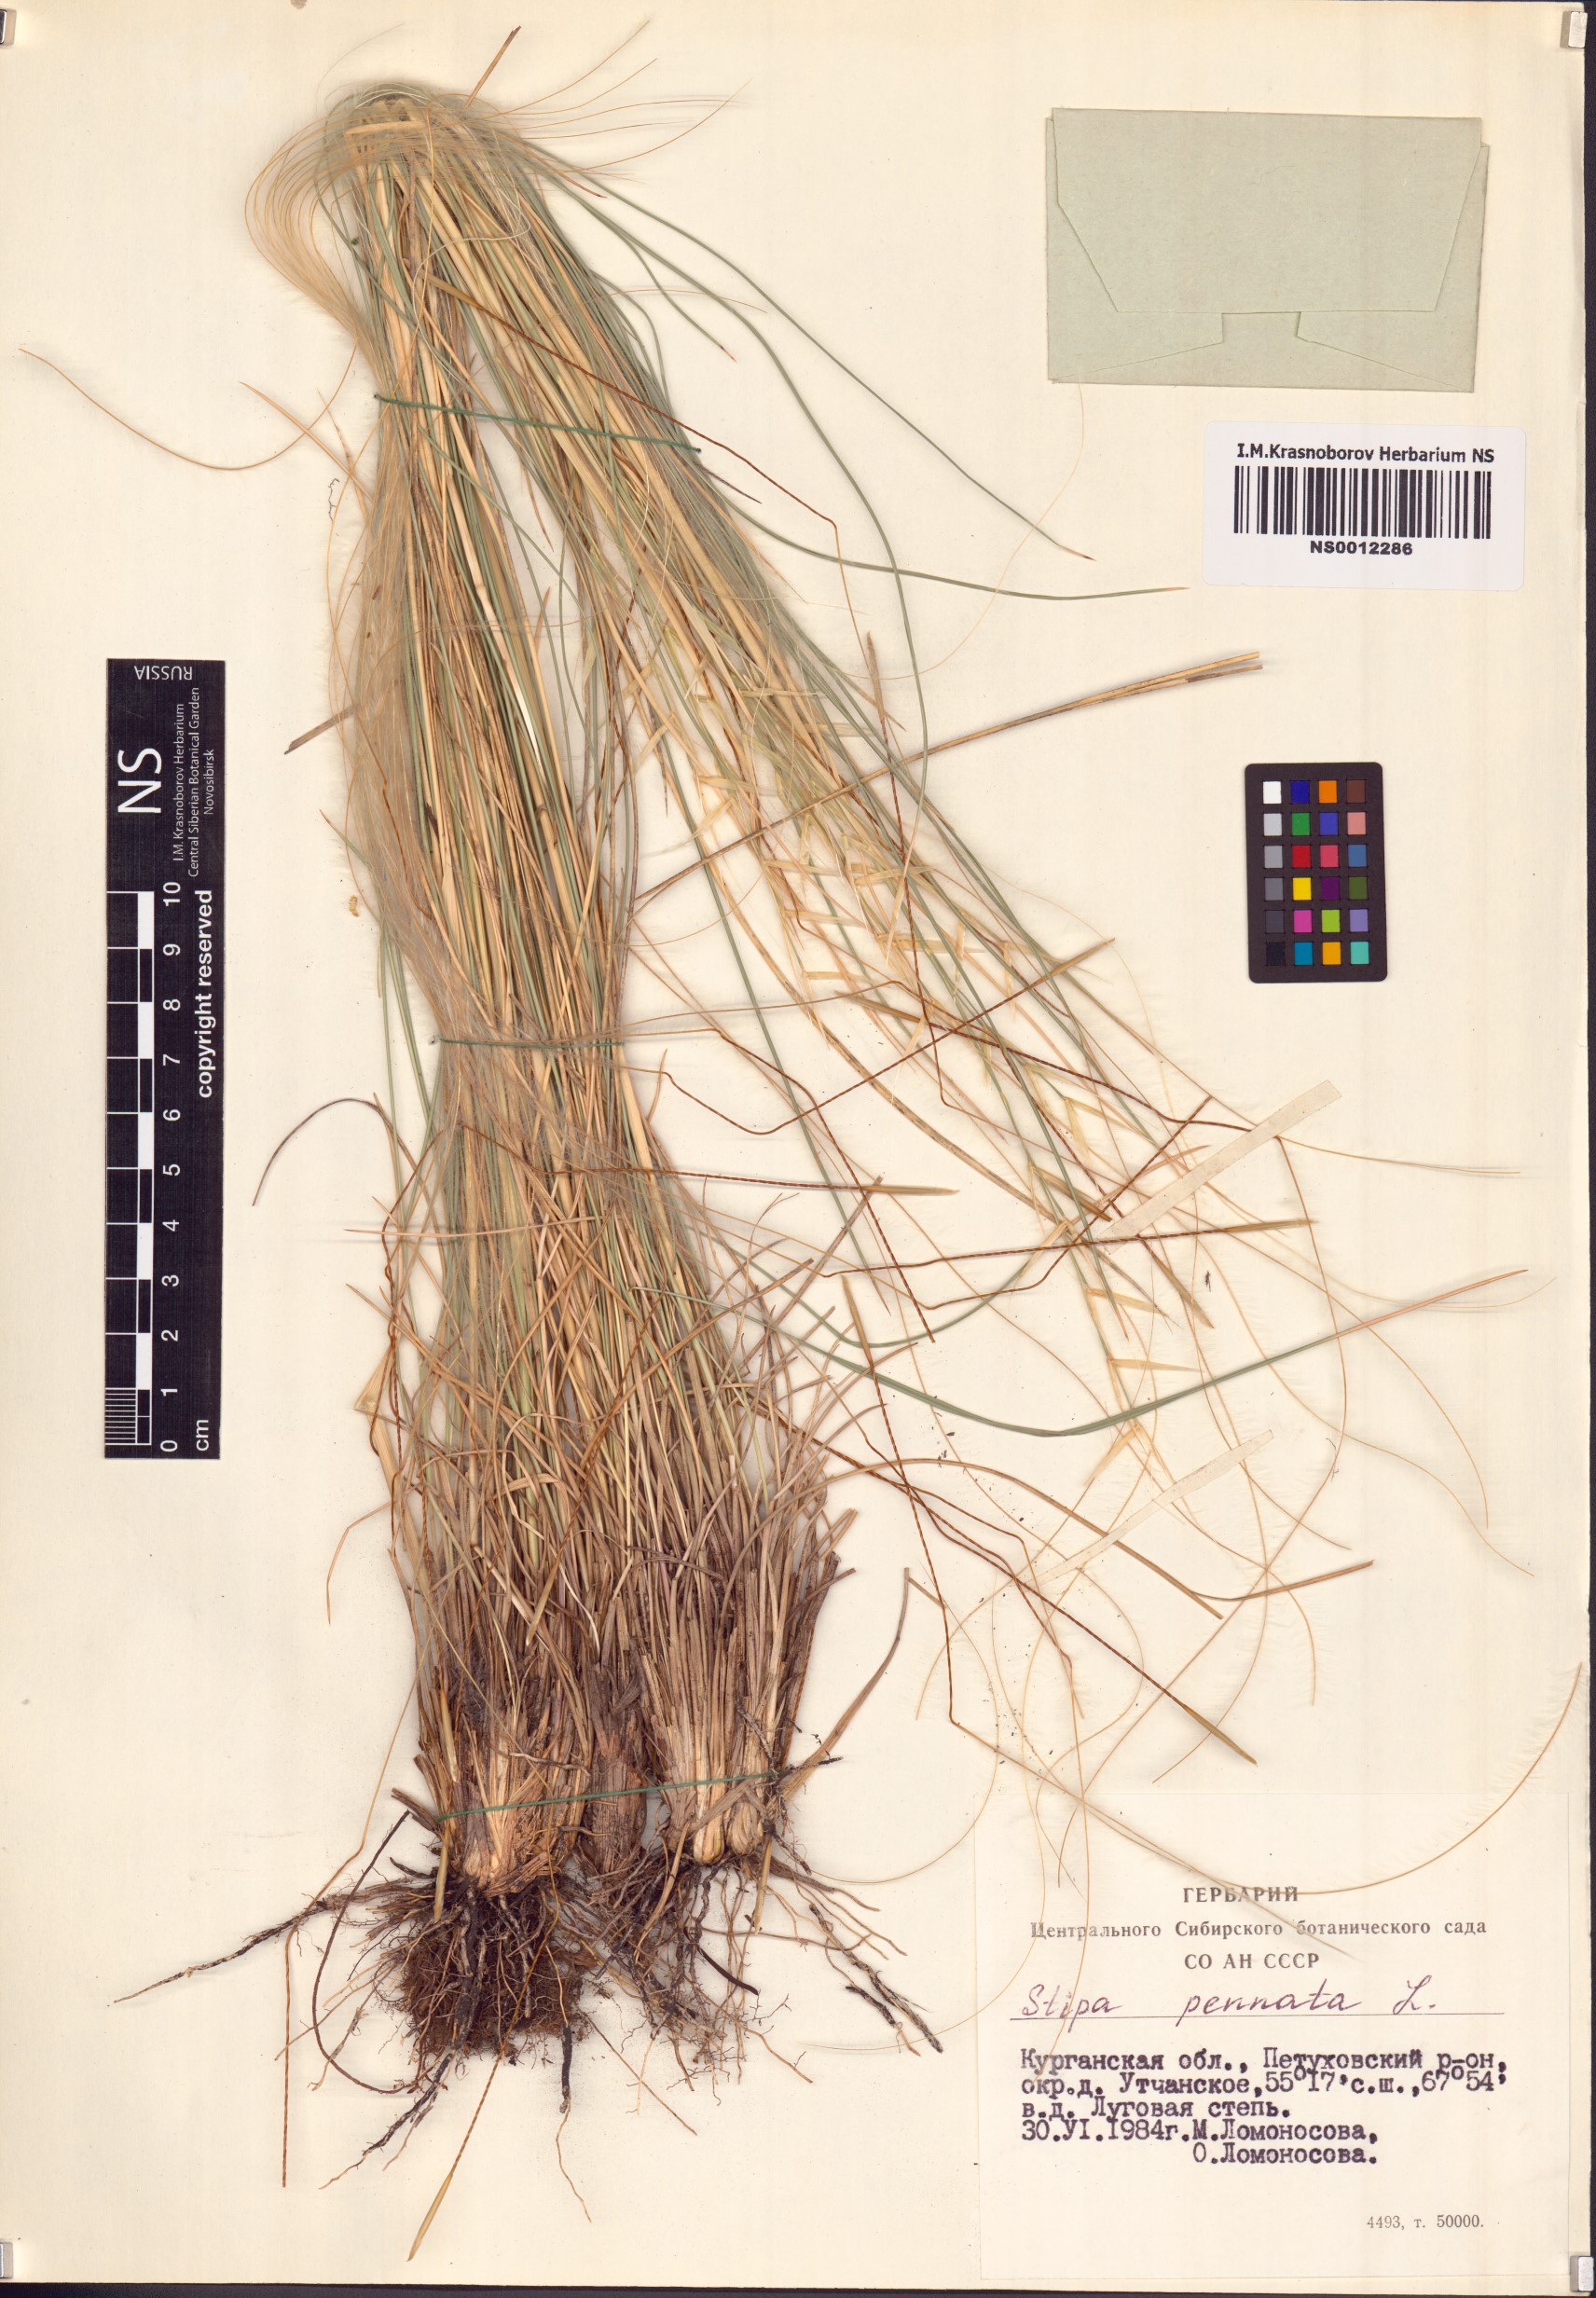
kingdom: Plantae
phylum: Tracheophyta
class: Liliopsida
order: Poales
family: Poaceae
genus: Stipa
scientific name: Stipa pennata
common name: European feather grass
